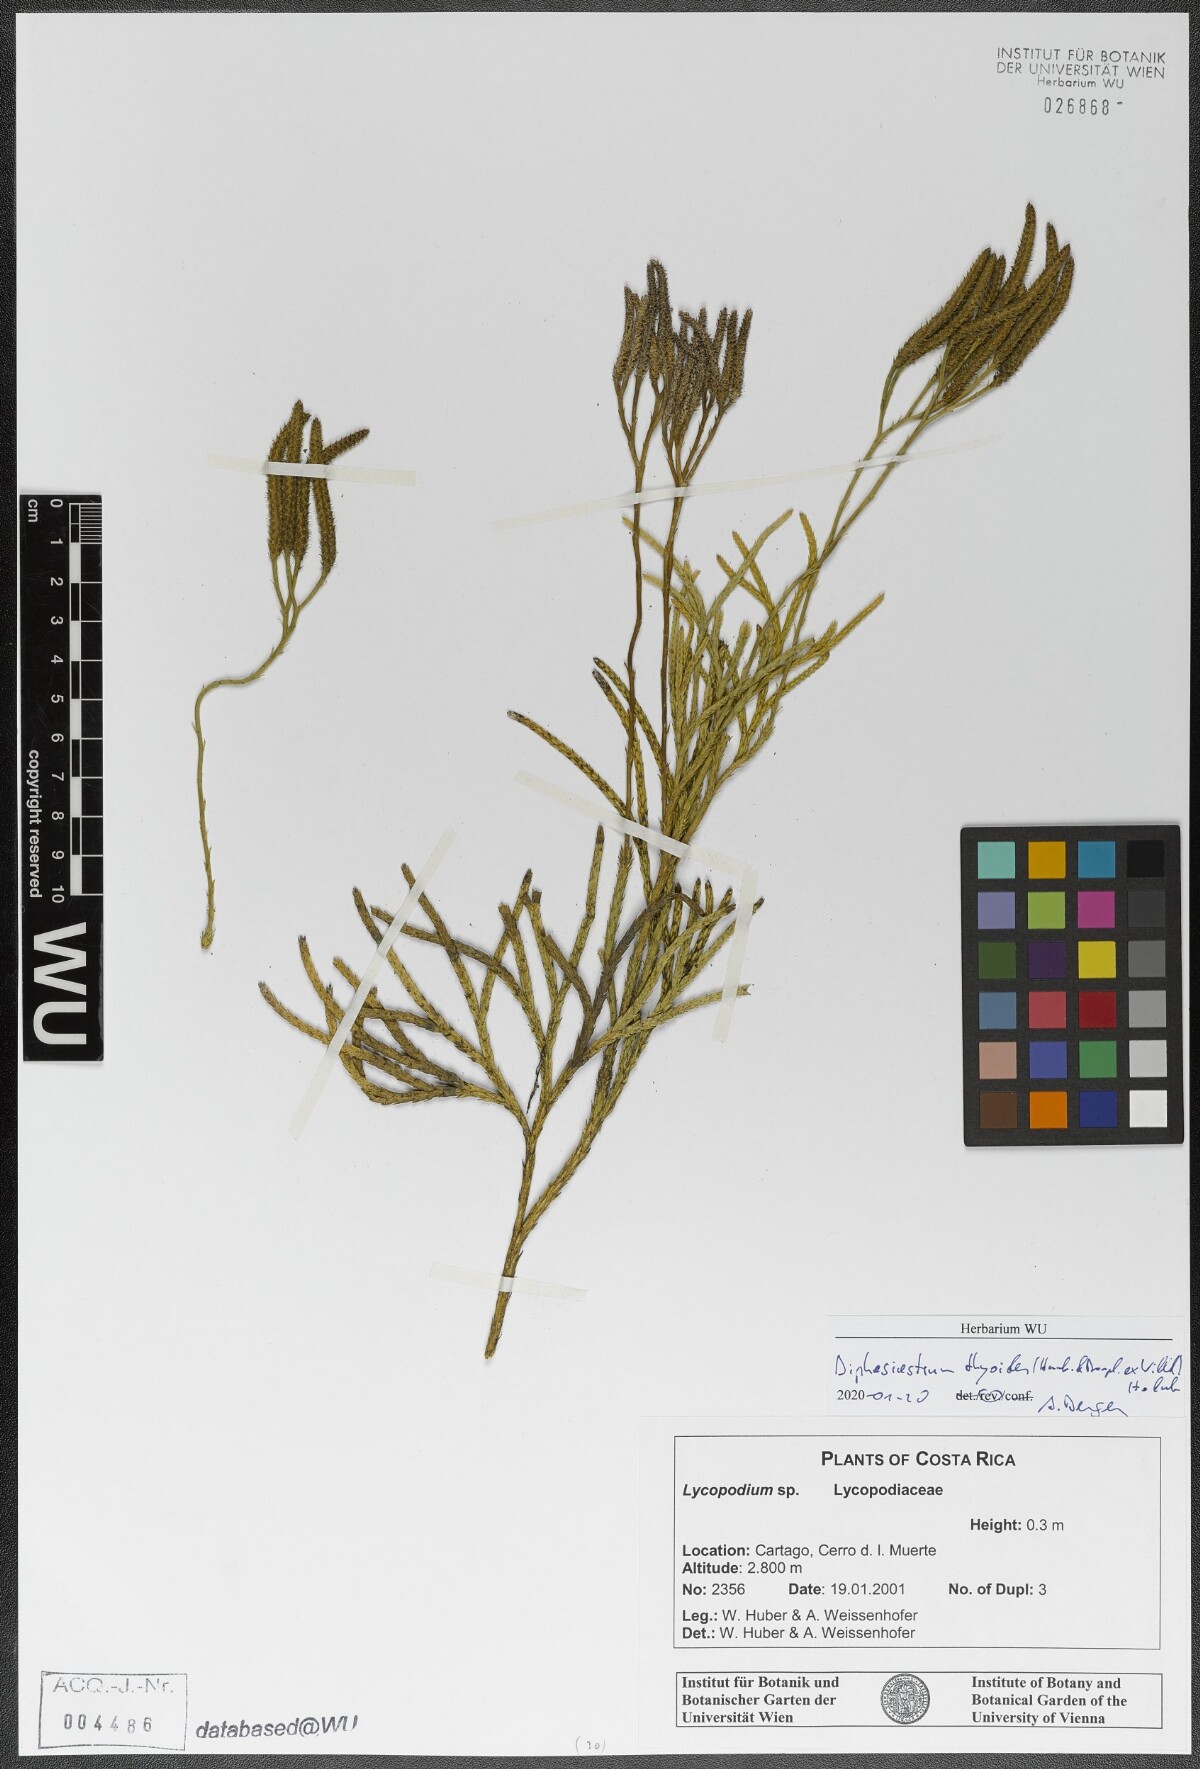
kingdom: Plantae
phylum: Tracheophyta
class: Lycopodiopsida
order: Lycopodiales
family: Lycopodiaceae
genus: Diphasiastrum
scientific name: Diphasiastrum thyoides
